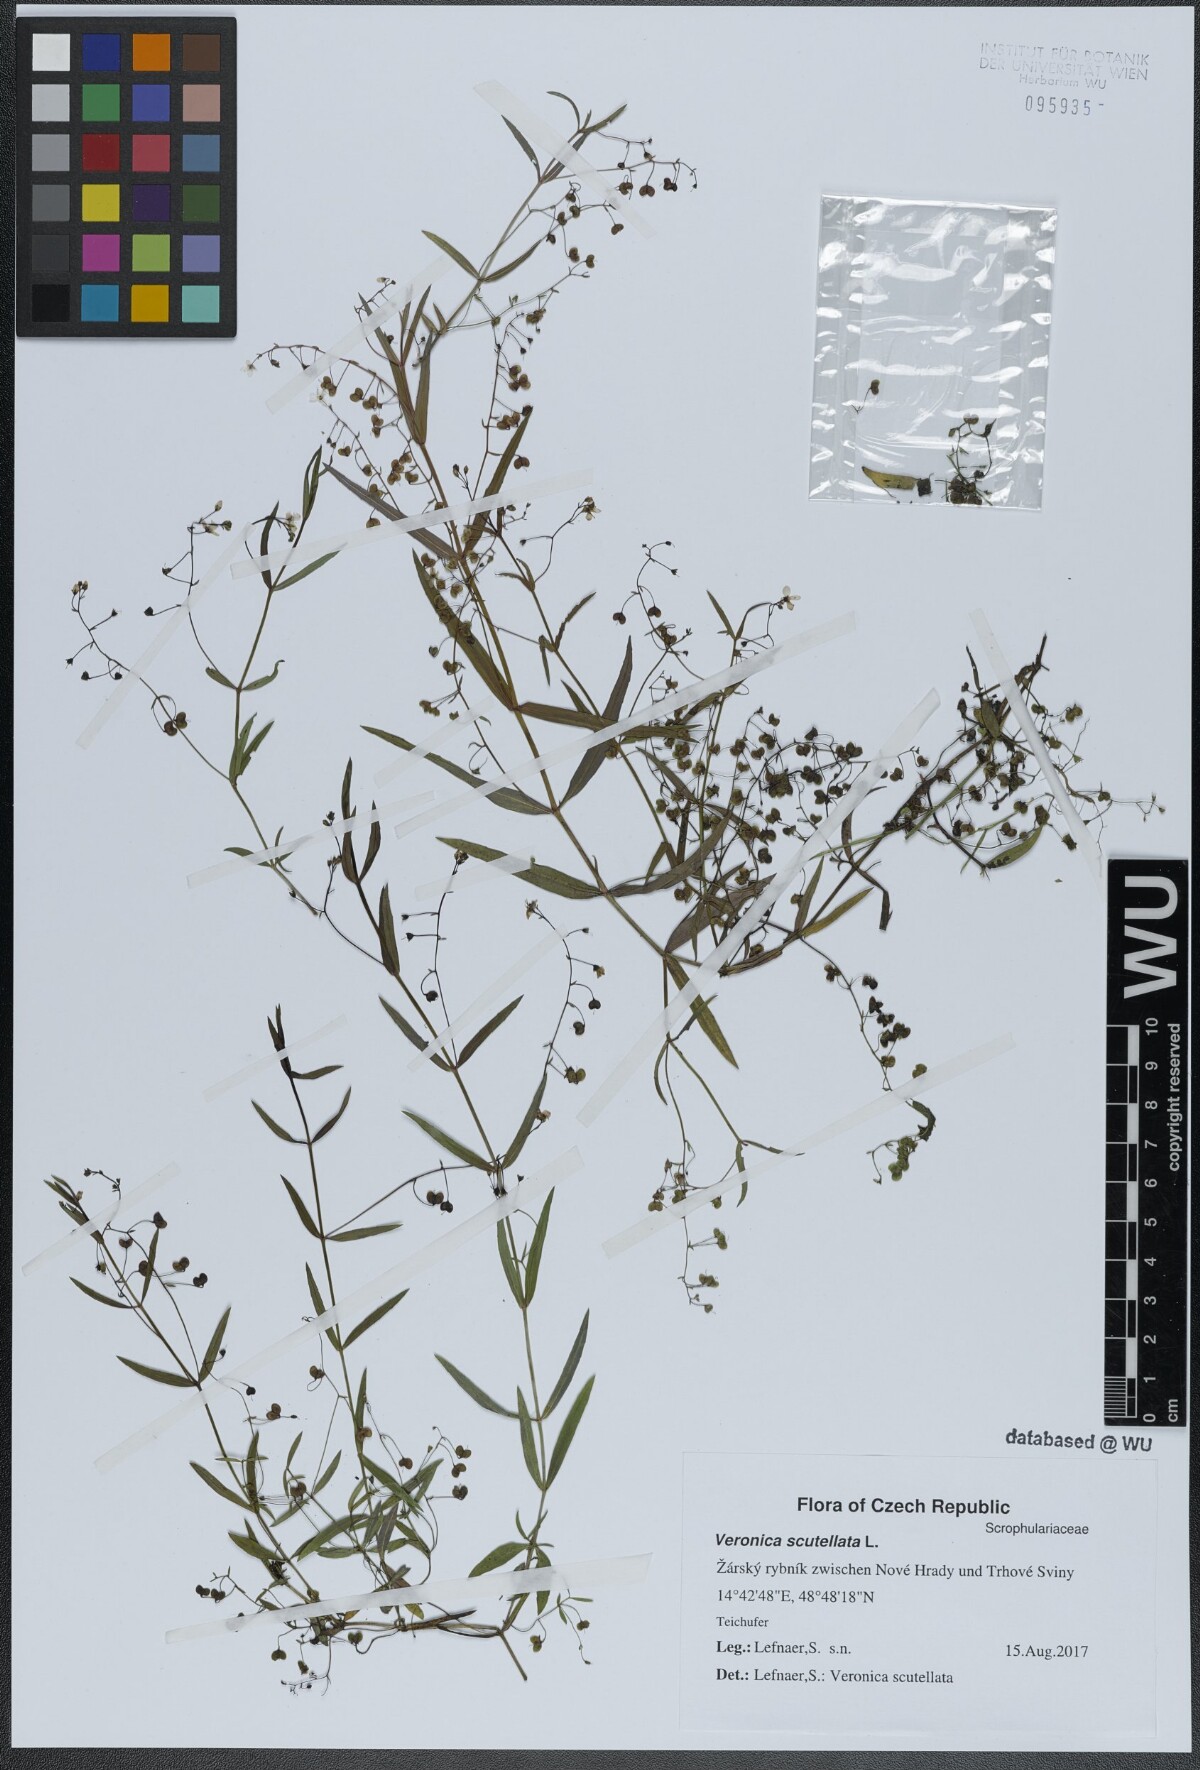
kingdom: Plantae
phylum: Tracheophyta
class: Magnoliopsida
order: Lamiales
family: Plantaginaceae
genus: Veronica
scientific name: Veronica scutellata
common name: Marsh speedwell
